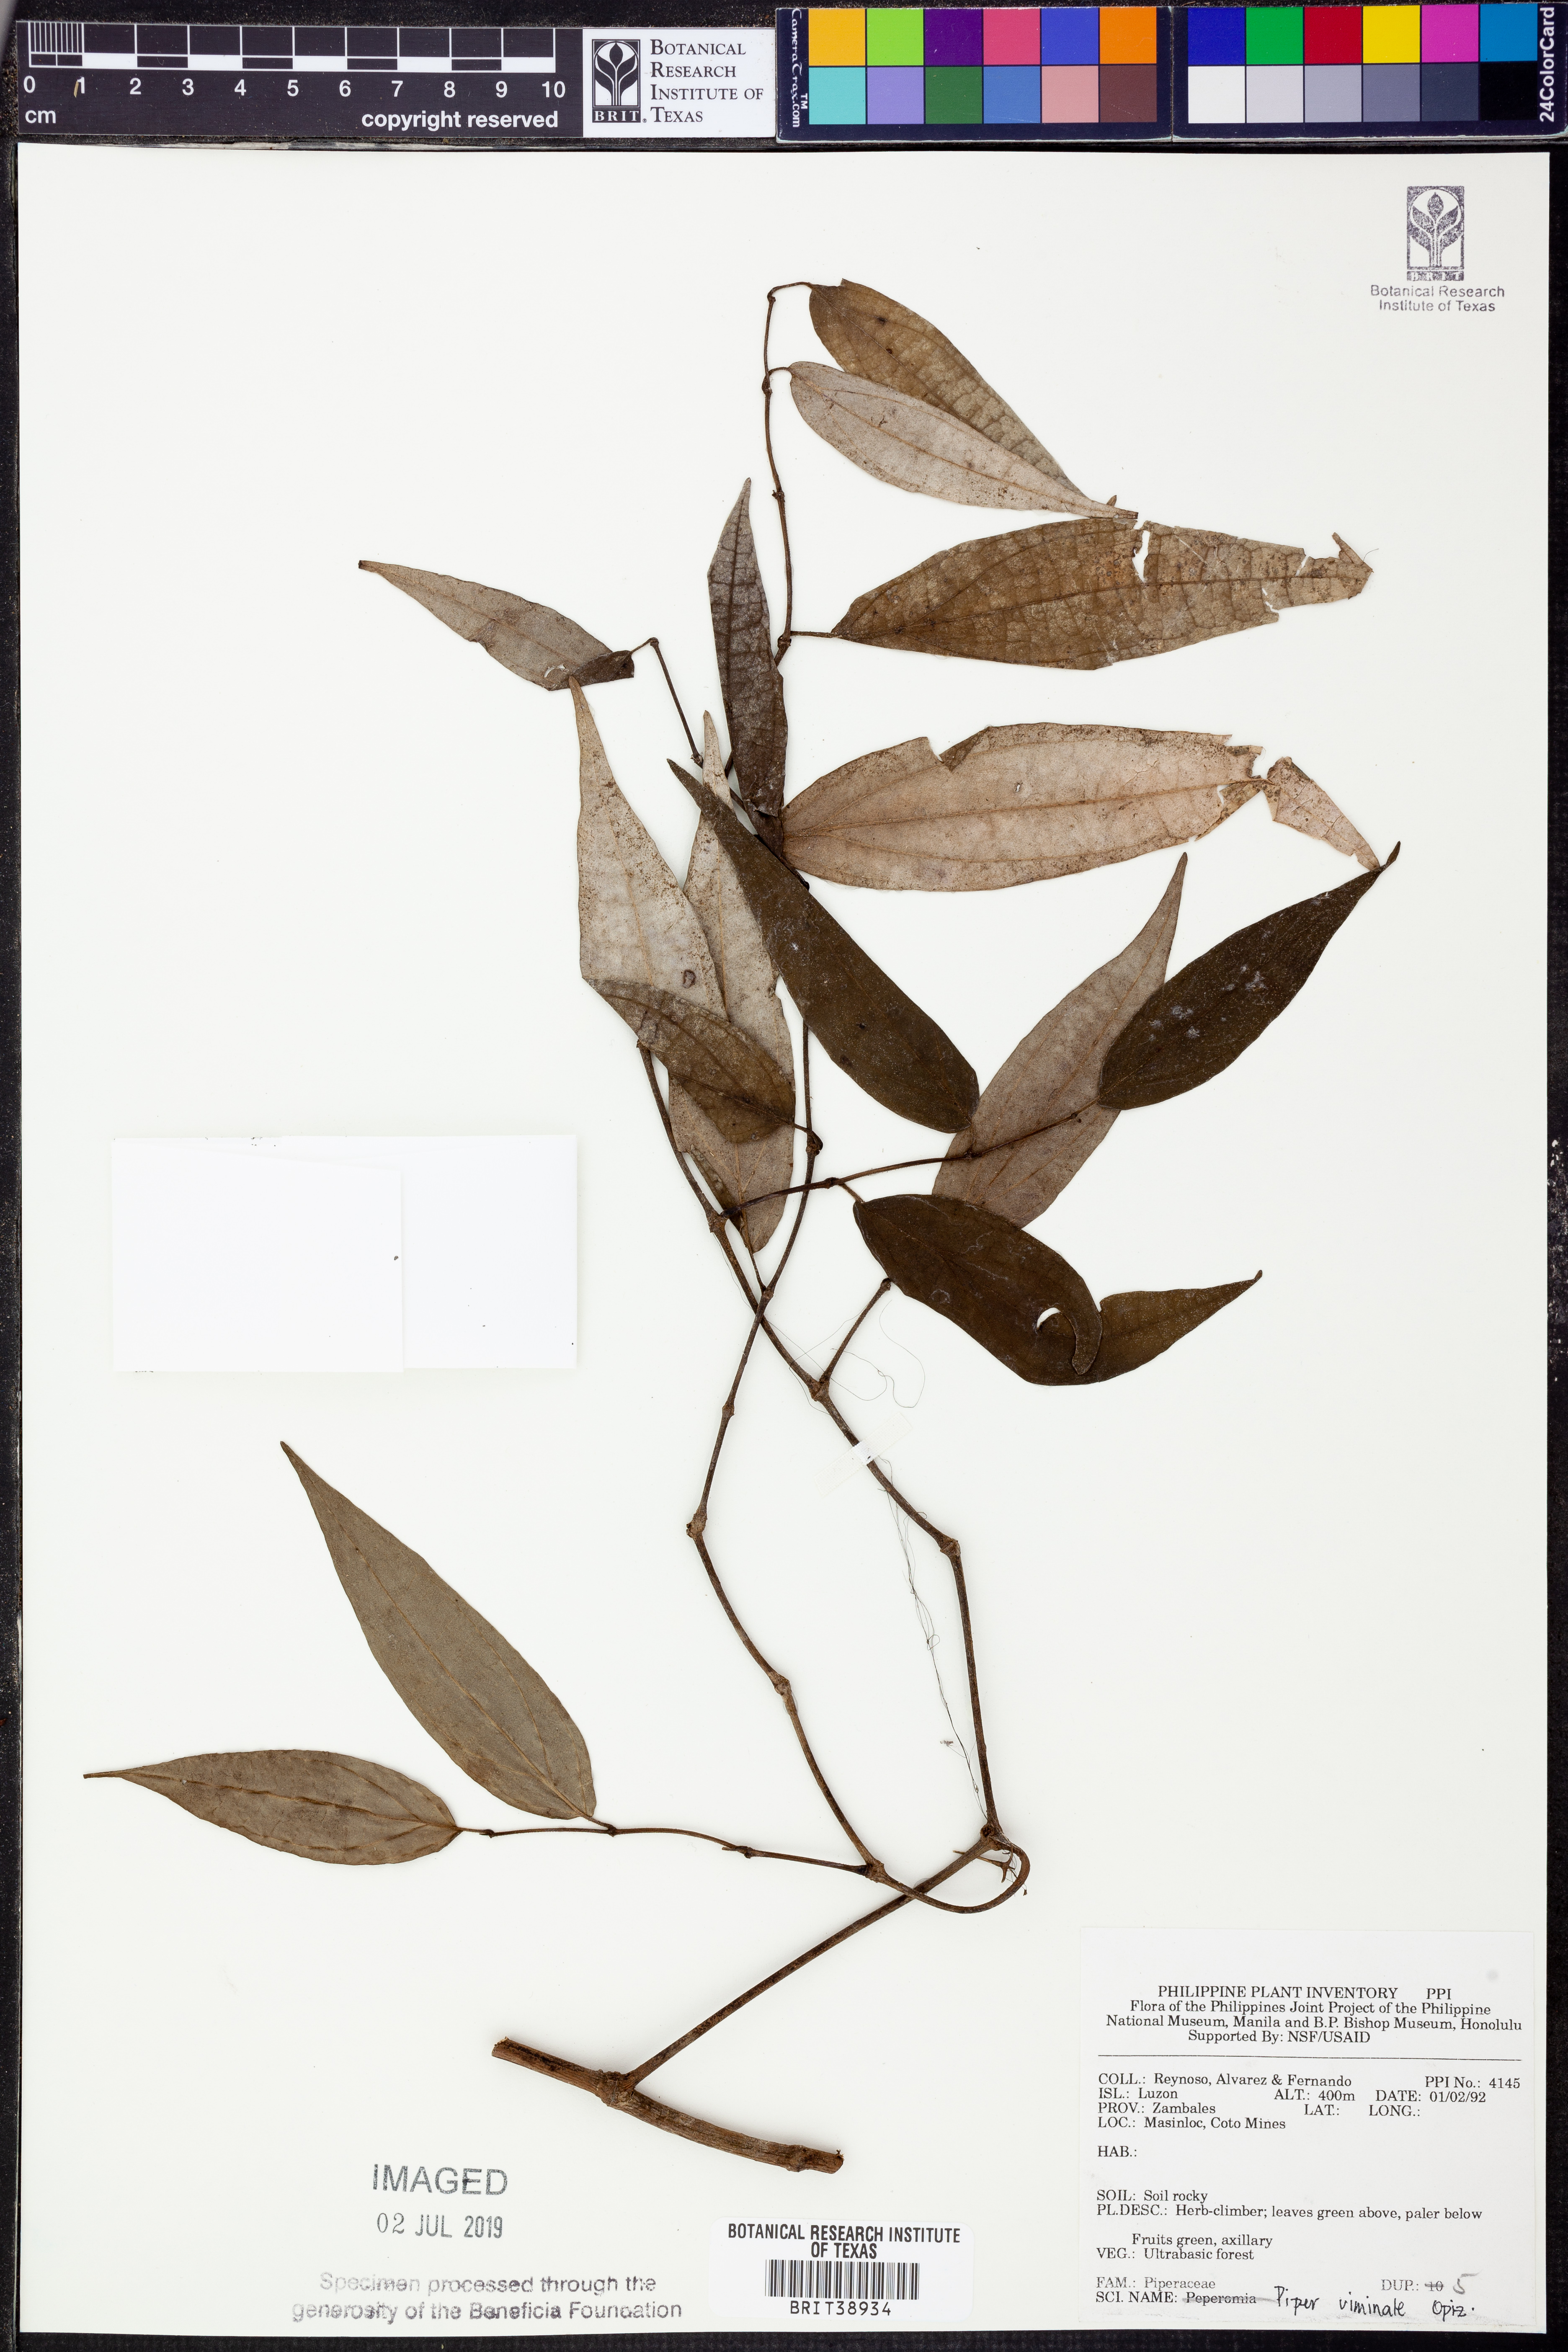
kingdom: Plantae
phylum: Tracheophyta
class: Magnoliopsida
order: Piperales
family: Piperaceae
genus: Piper
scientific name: Piper lanatum
